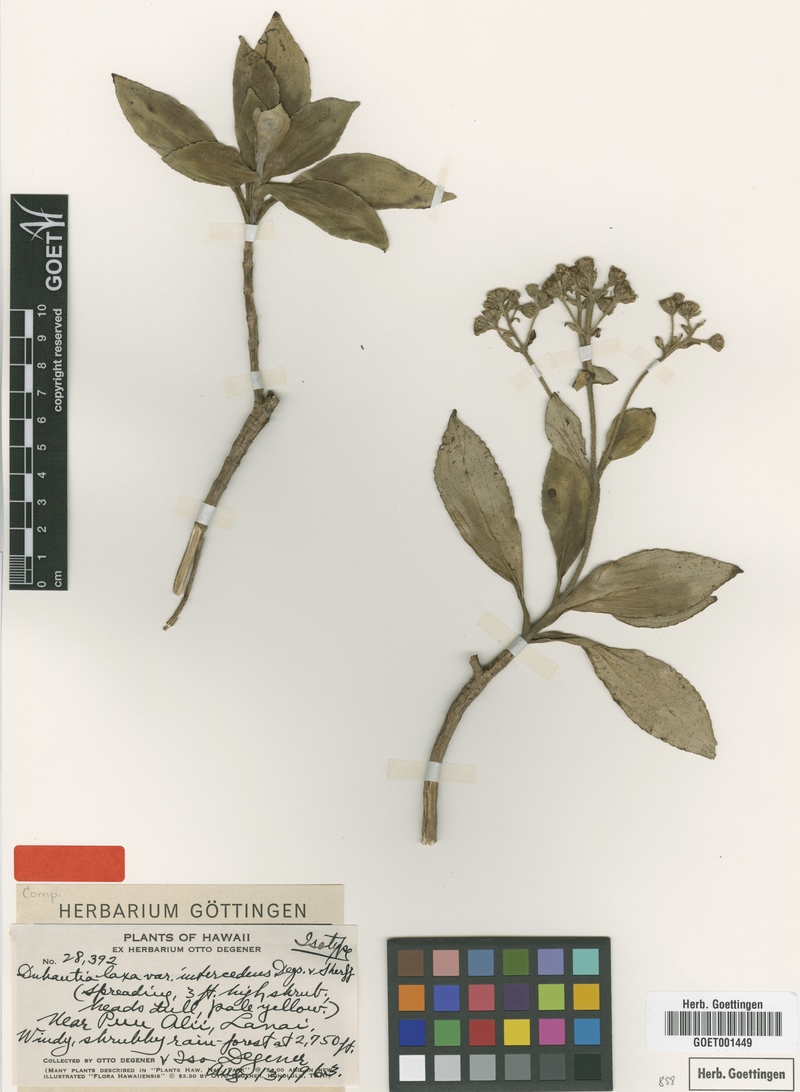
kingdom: Plantae
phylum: Tracheophyta
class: Magnoliopsida
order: Asterales
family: Asteraceae
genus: Dubautia
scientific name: Dubautia laxa
